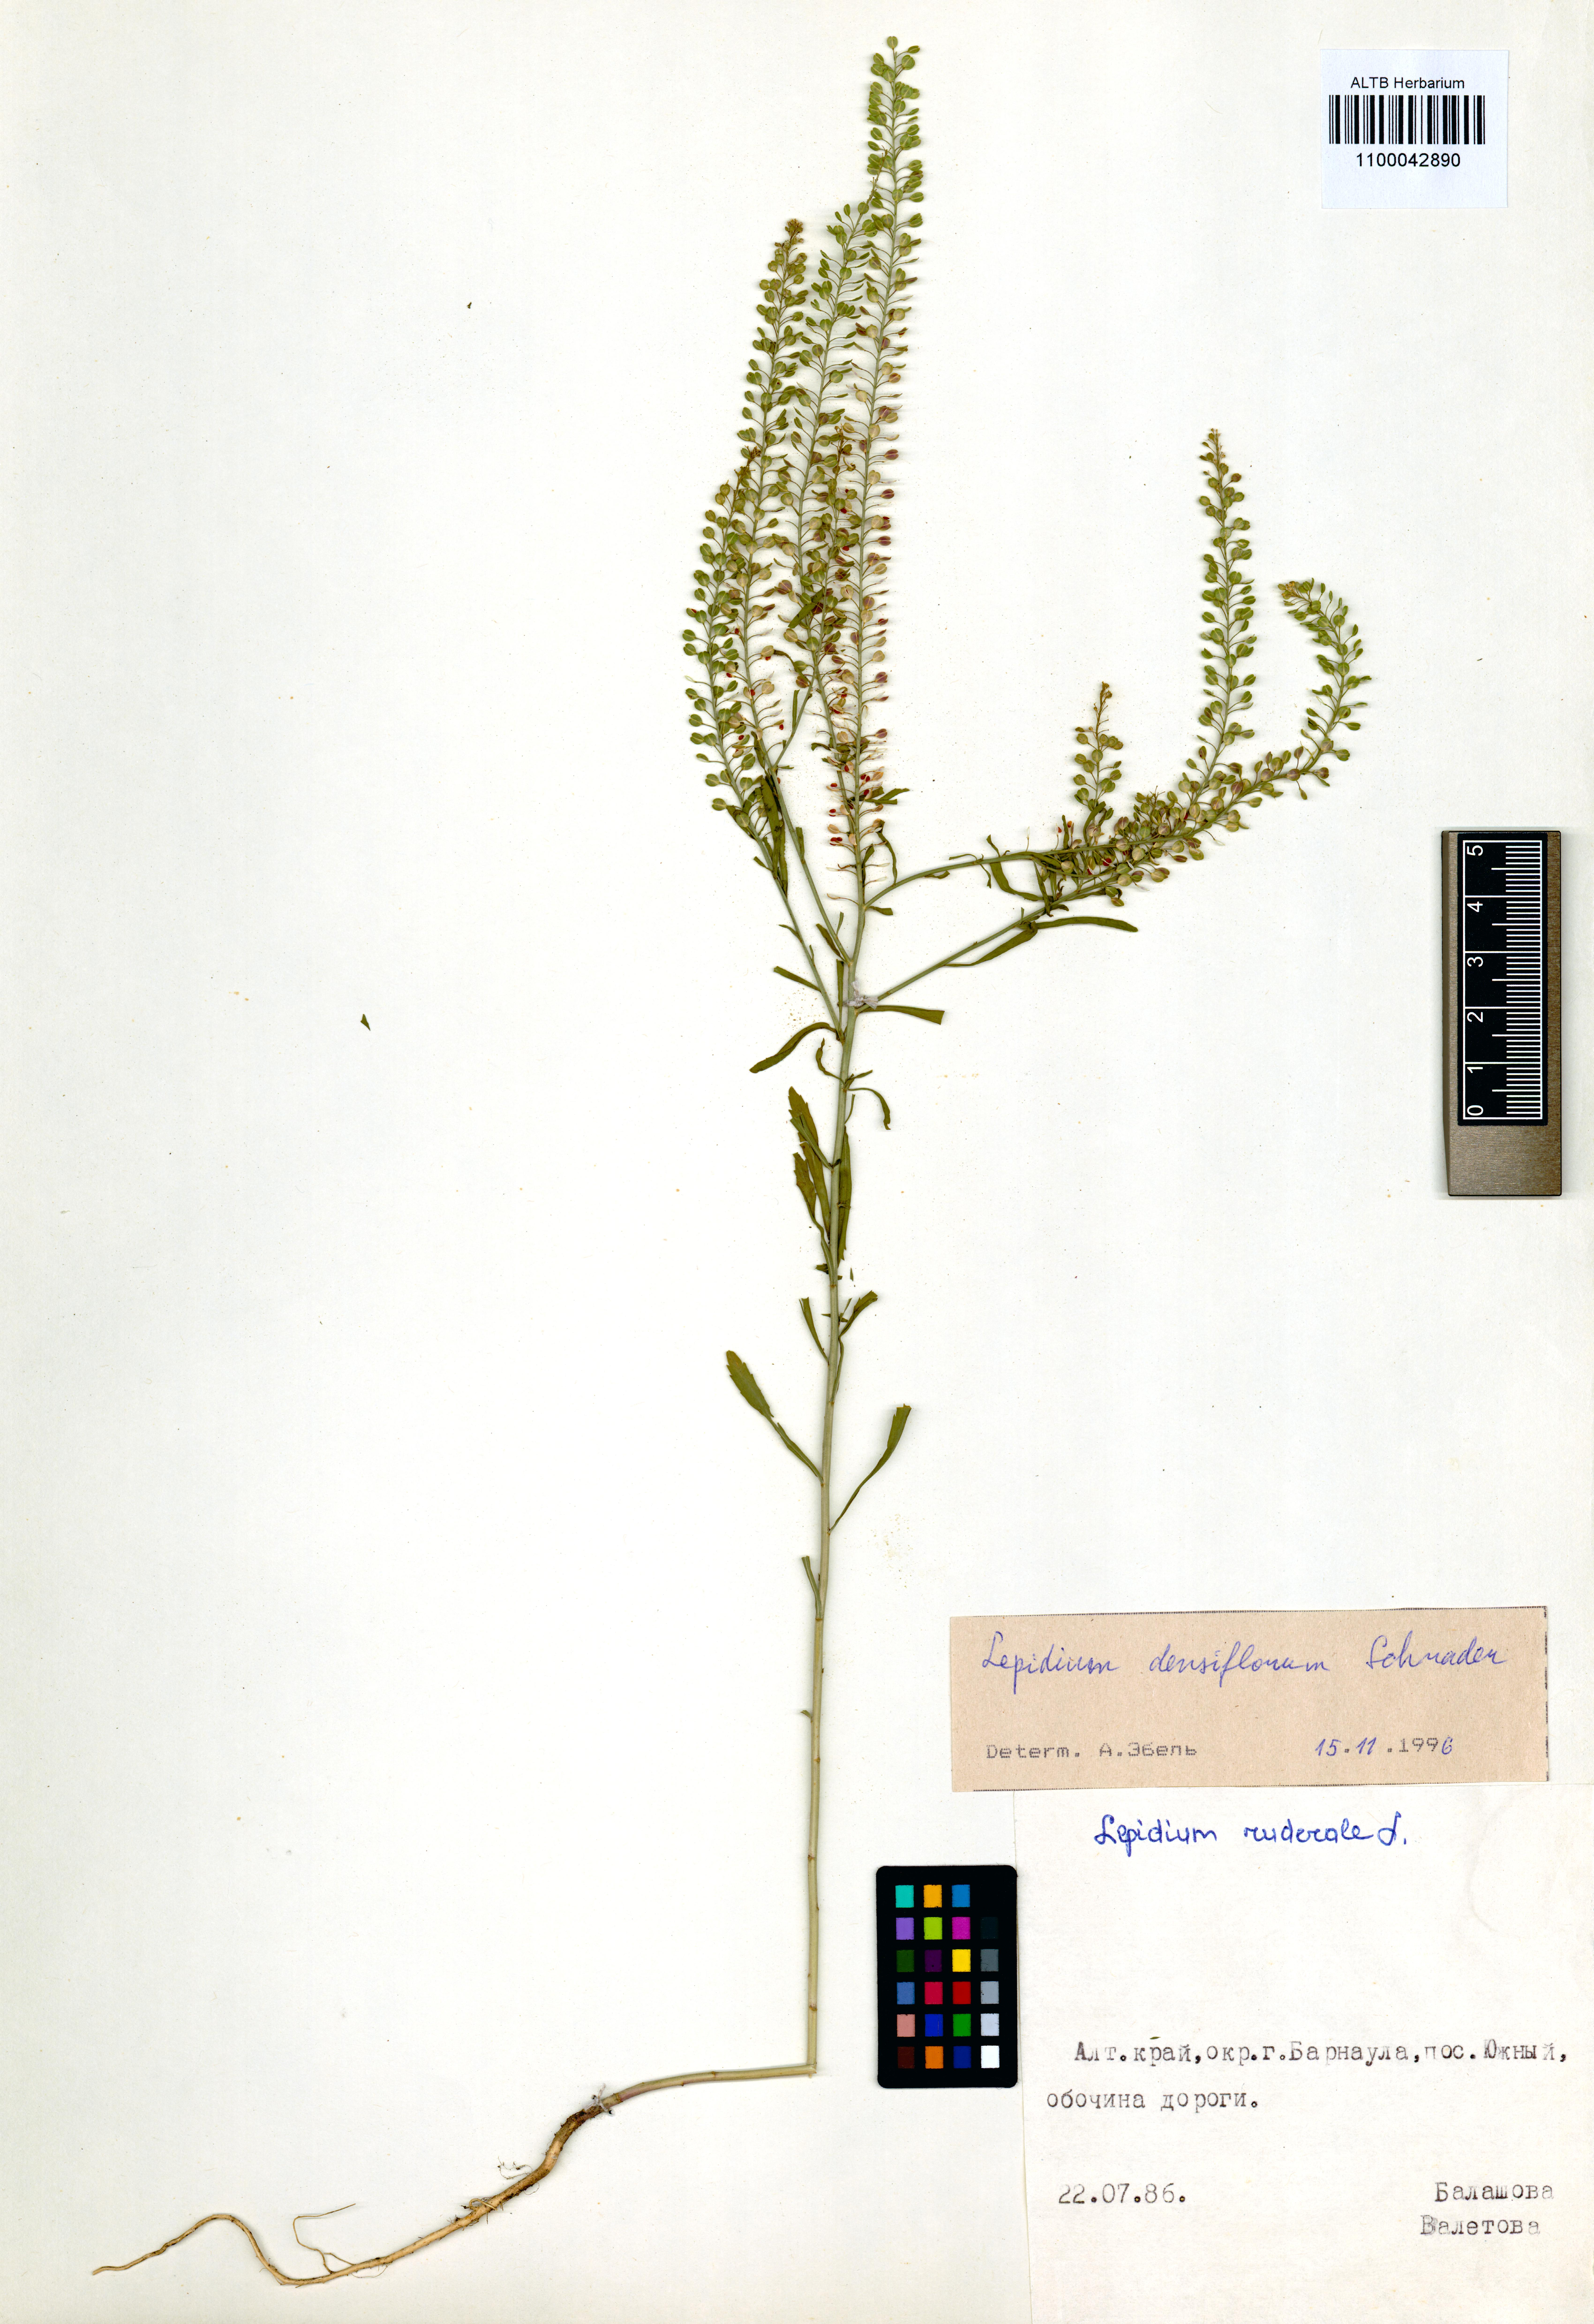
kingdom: Plantae
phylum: Tracheophyta
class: Magnoliopsida
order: Brassicales
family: Brassicaceae
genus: Lepidium
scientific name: Lepidium densiflorum
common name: Miner's pepperwort
